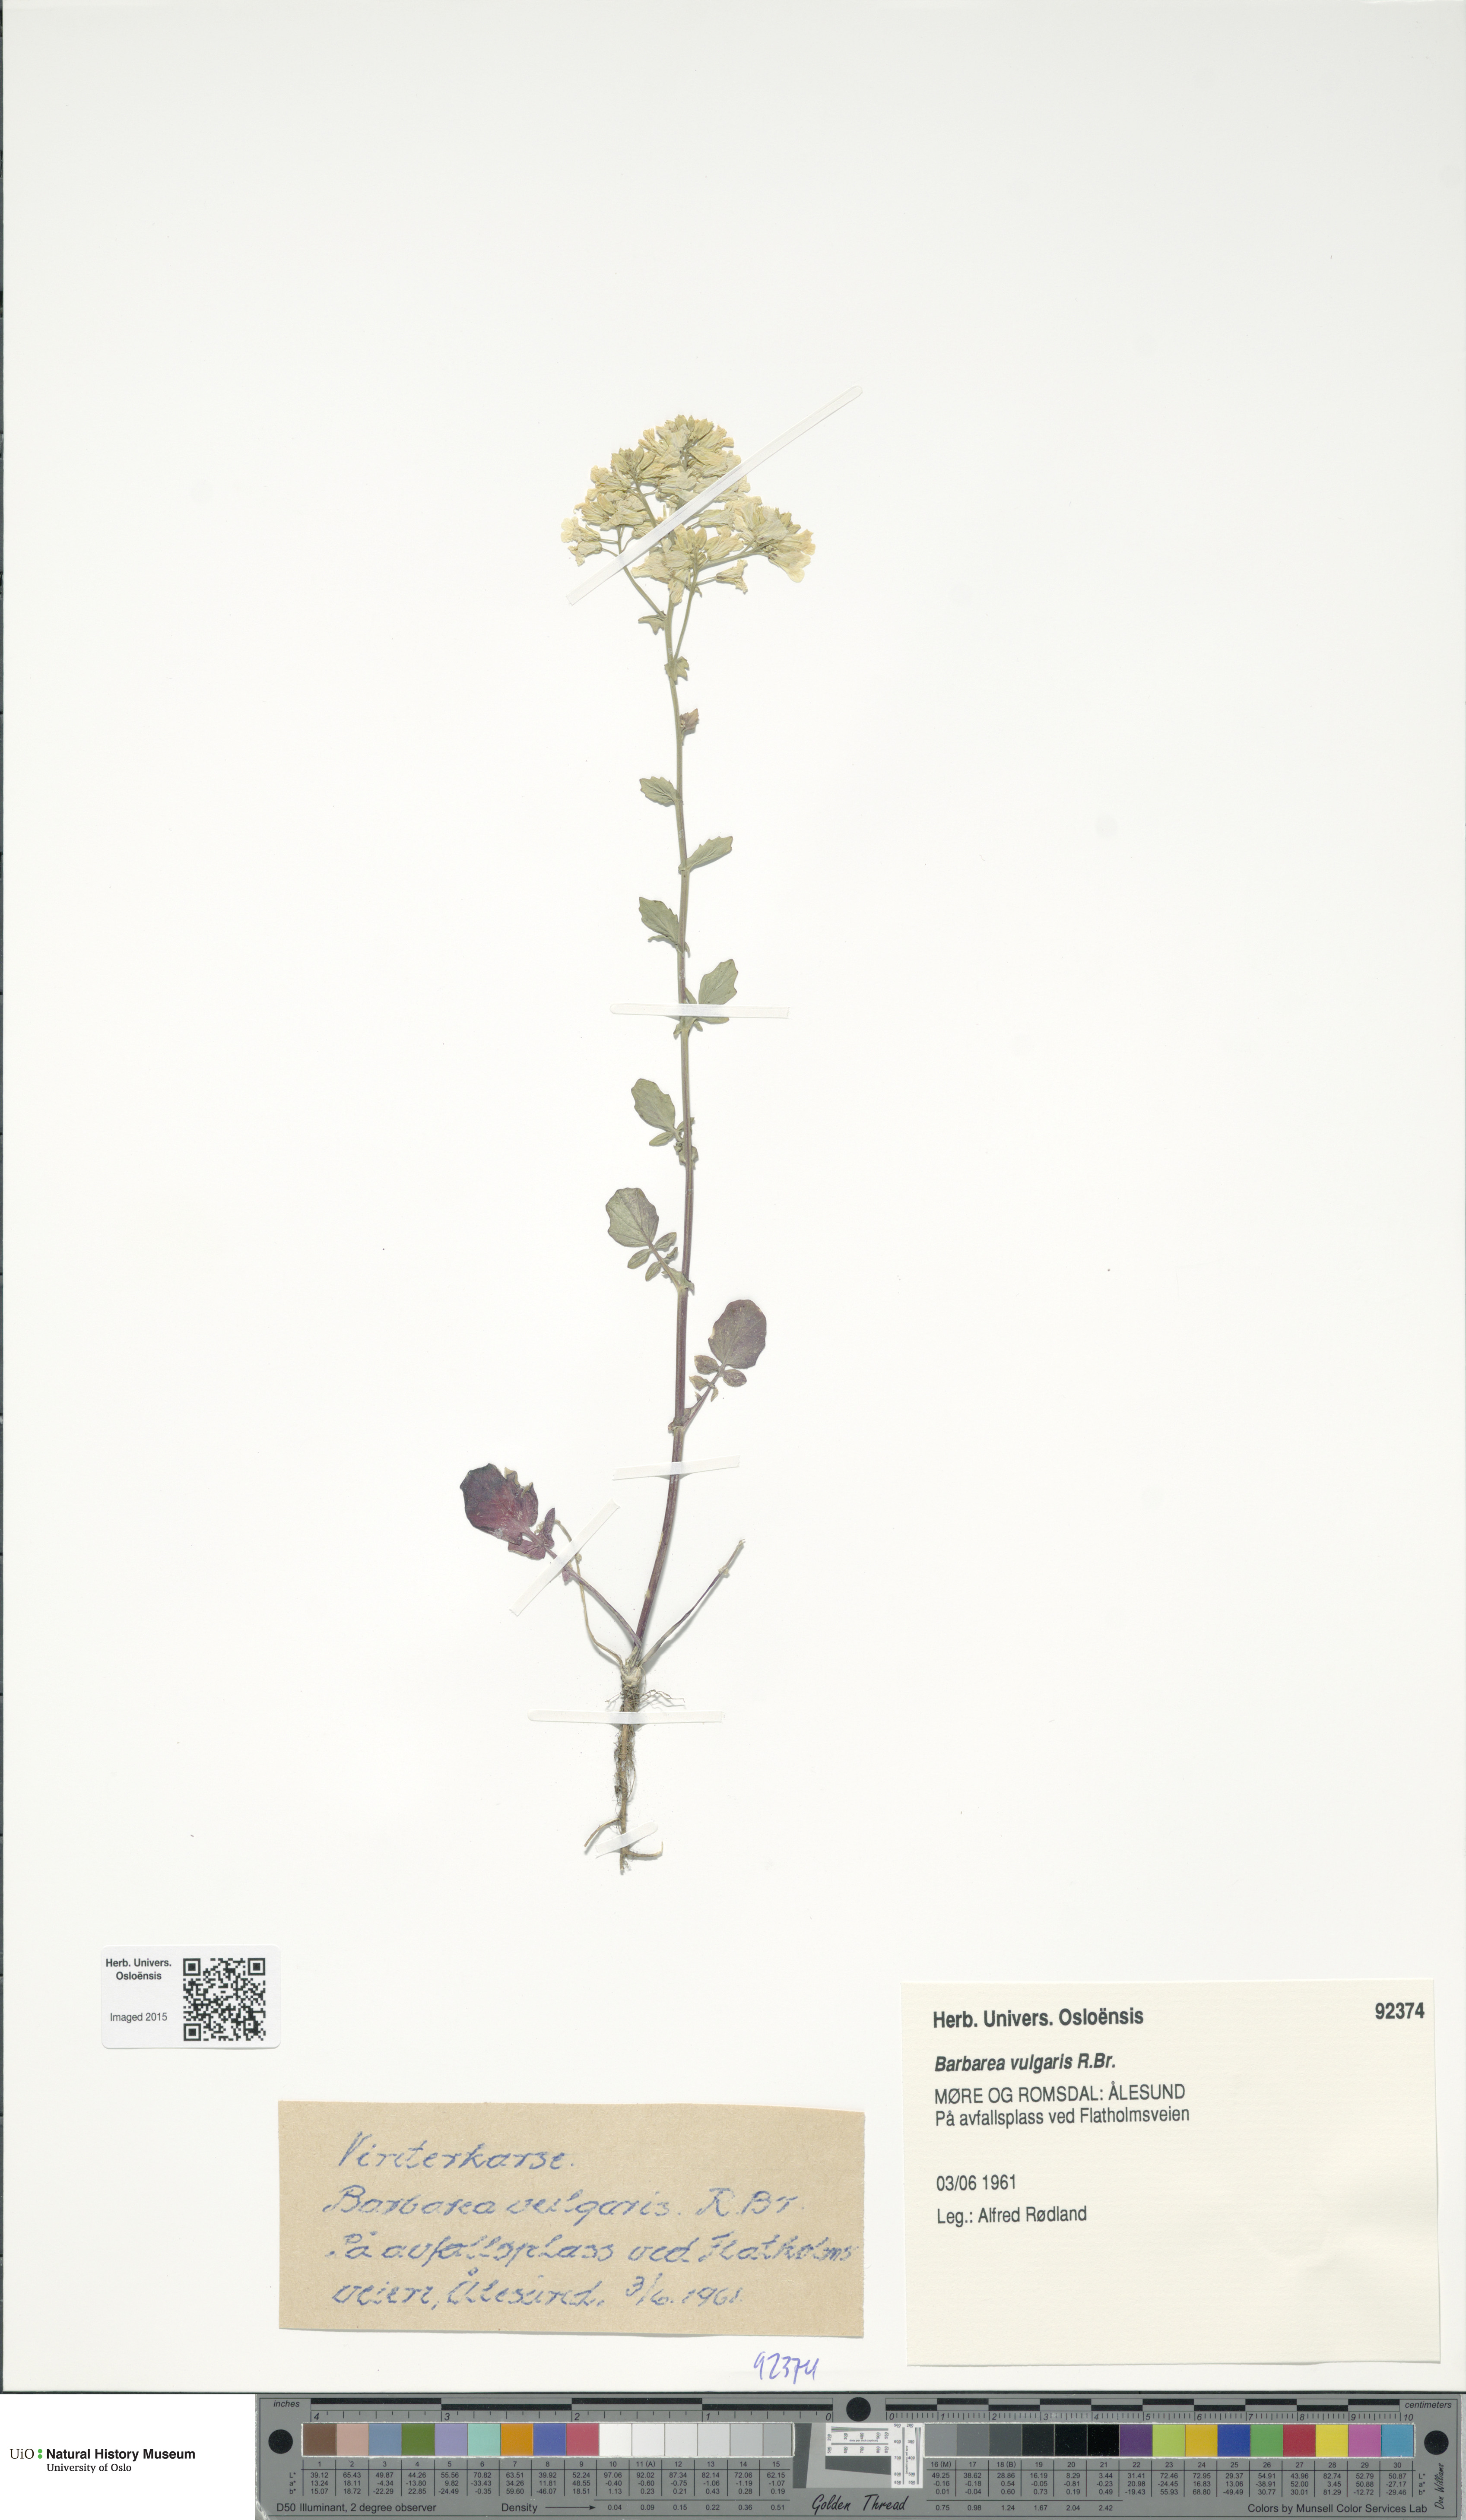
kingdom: Plantae
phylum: Tracheophyta
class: Magnoliopsida
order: Brassicales
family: Brassicaceae
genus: Barbarea
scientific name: Barbarea vulgaris
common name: Cressy-greens
